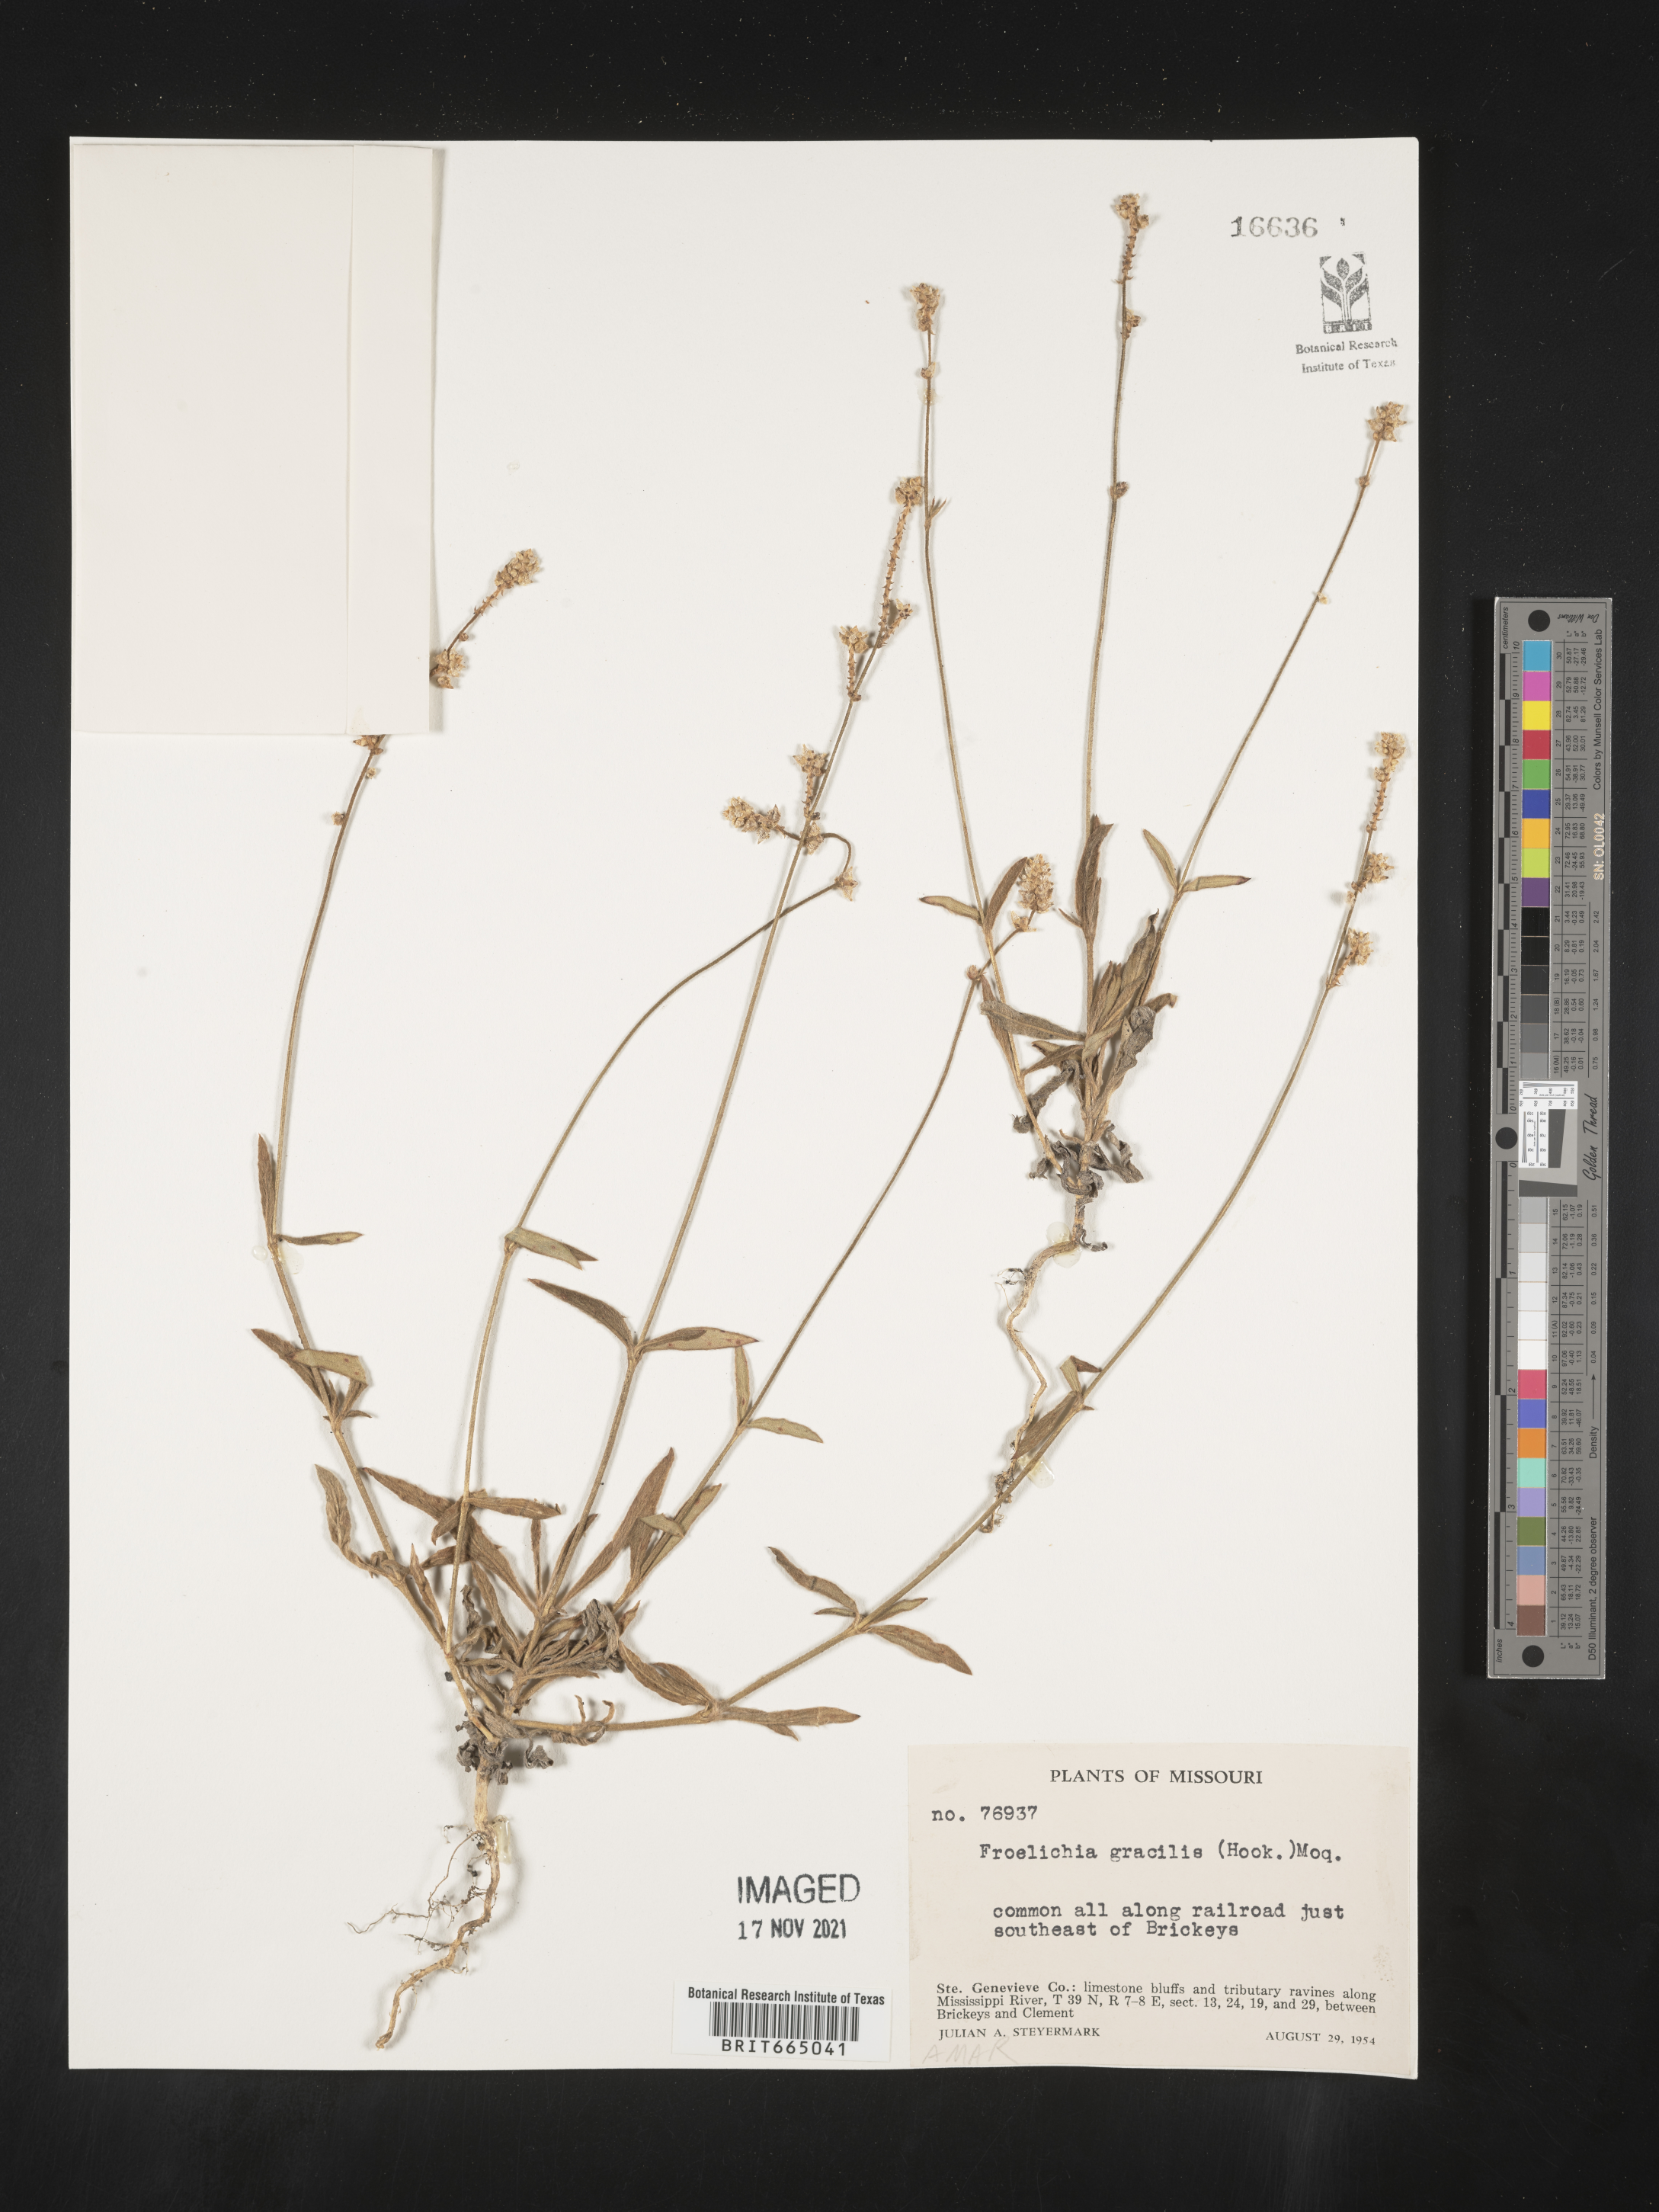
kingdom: Plantae
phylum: Tracheophyta
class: Magnoliopsida
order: Caryophyllales
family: Amaranthaceae
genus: Froelichia
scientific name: Froelichia gracilis
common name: Slender cottonweed
